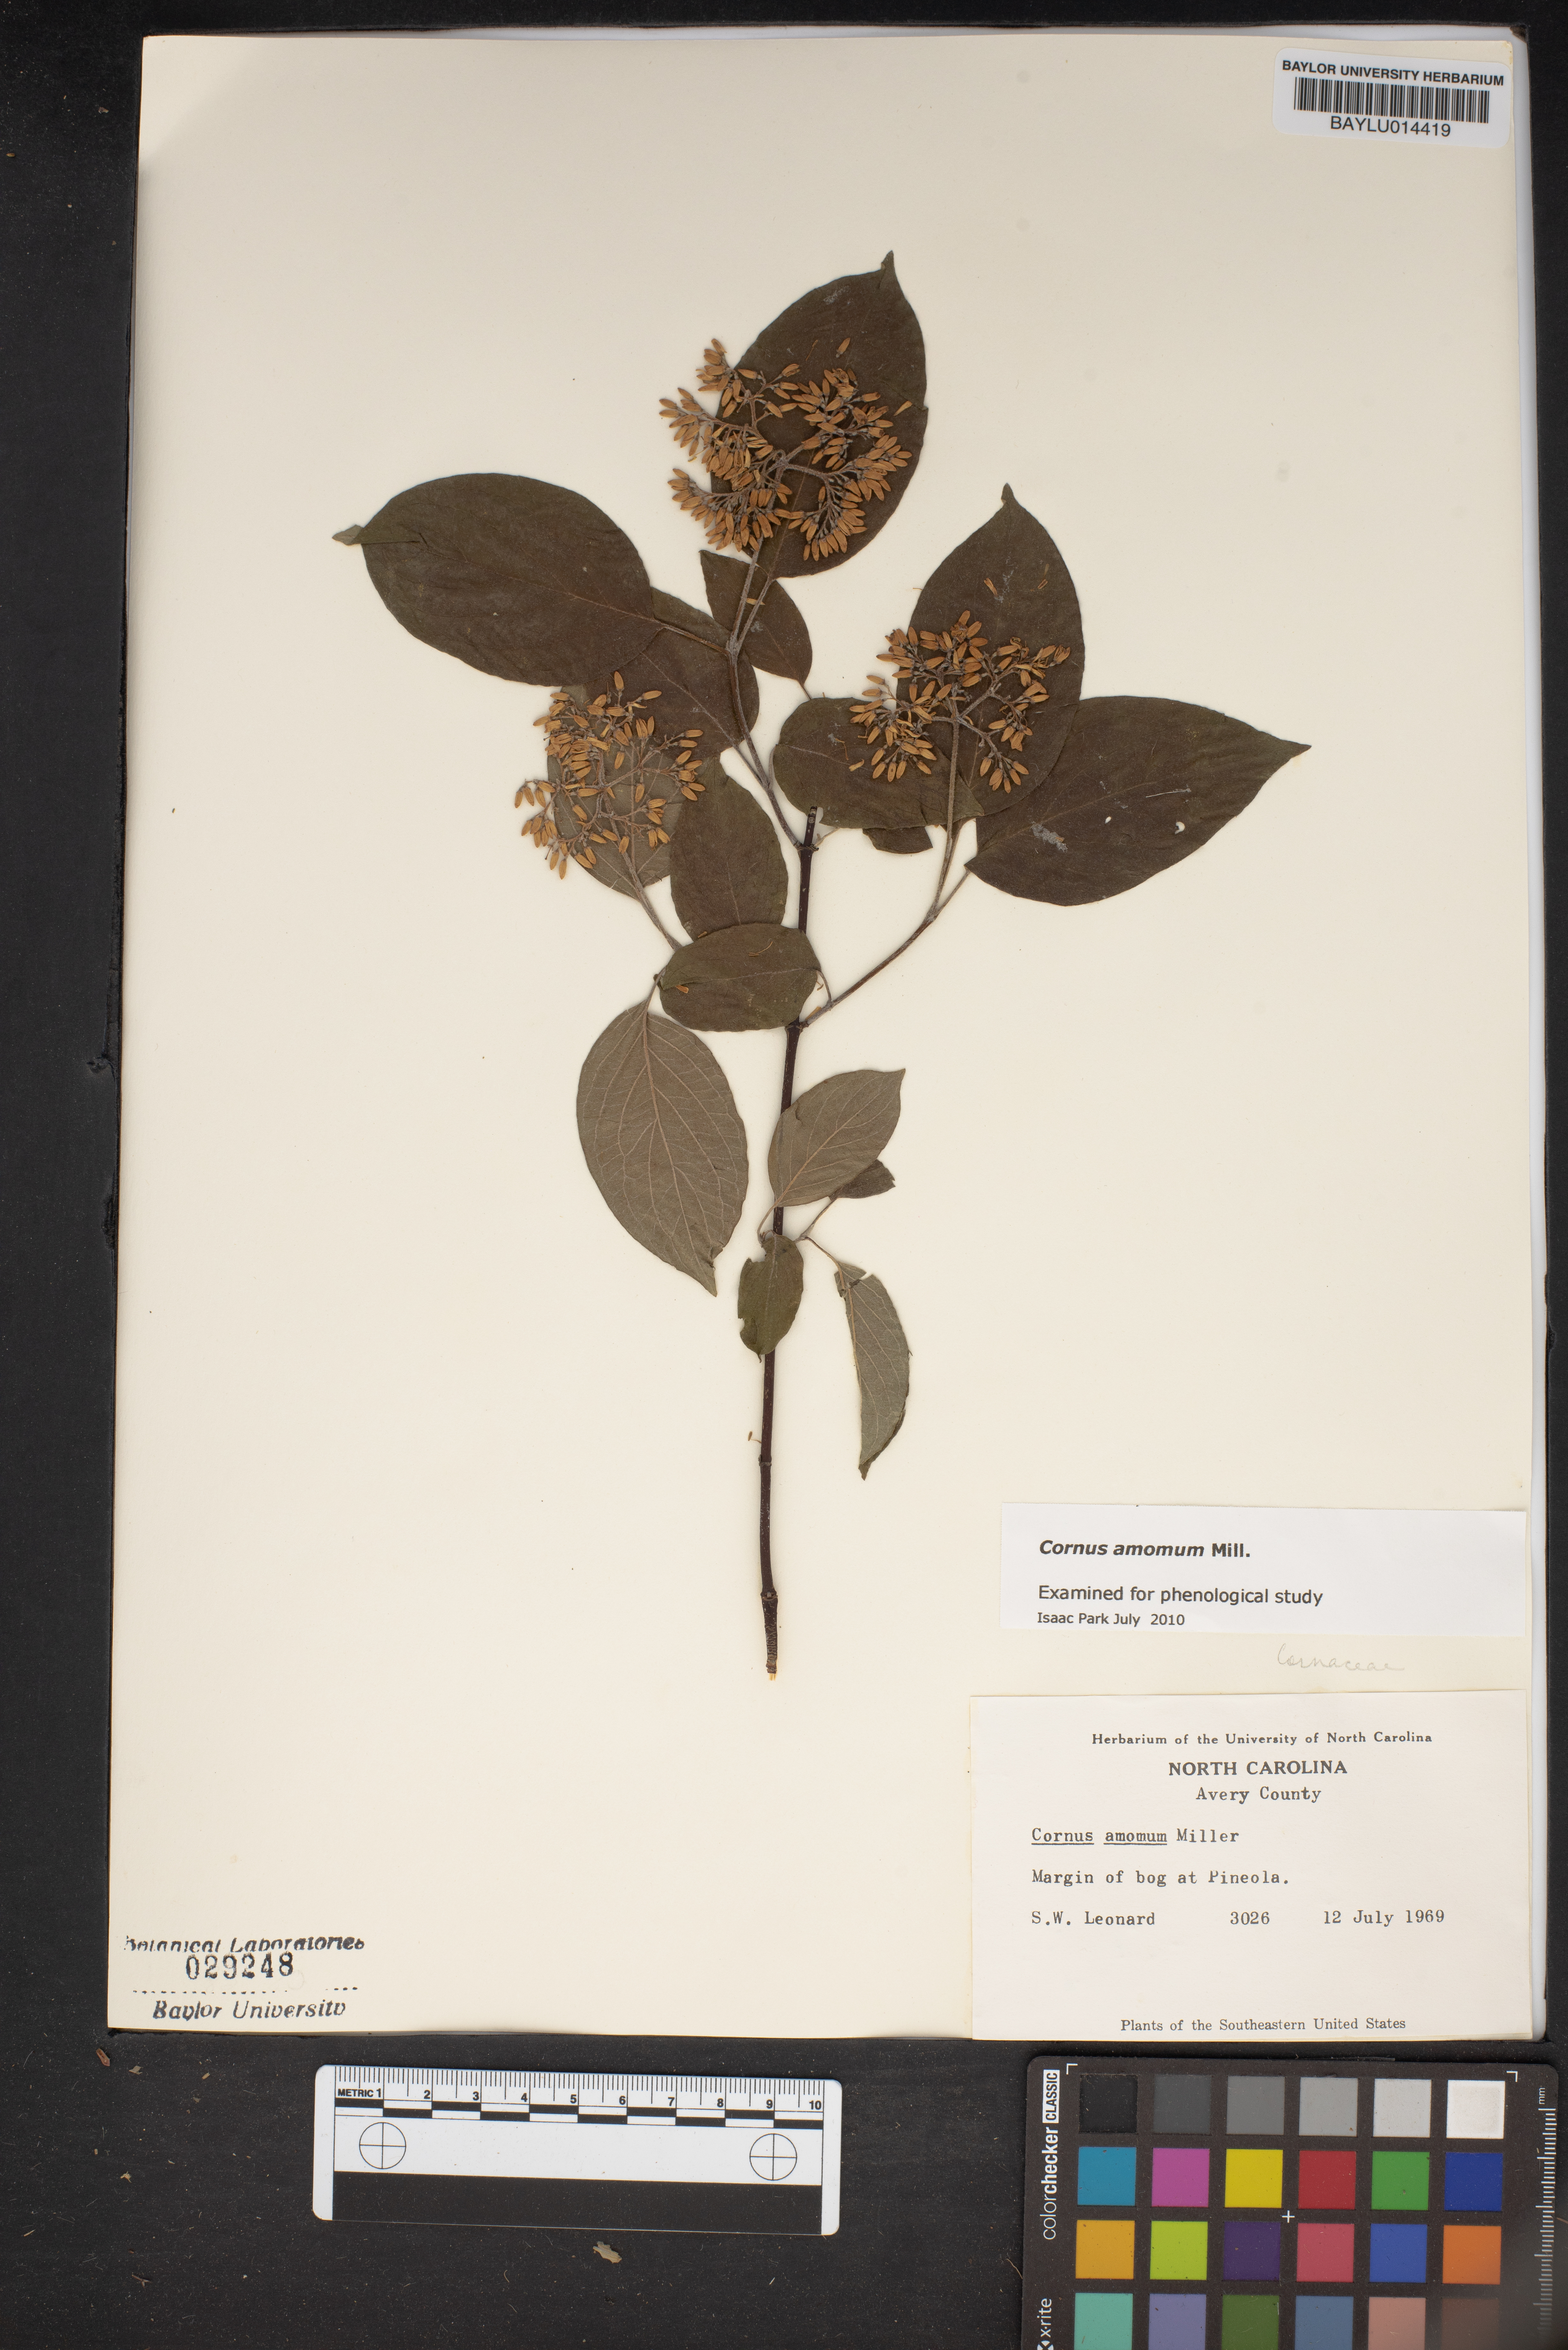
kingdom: Plantae
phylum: Tracheophyta
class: Magnoliopsida
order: Cornales
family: Cornaceae
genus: Cornus
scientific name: Cornus amomum
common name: Silky dogwood
